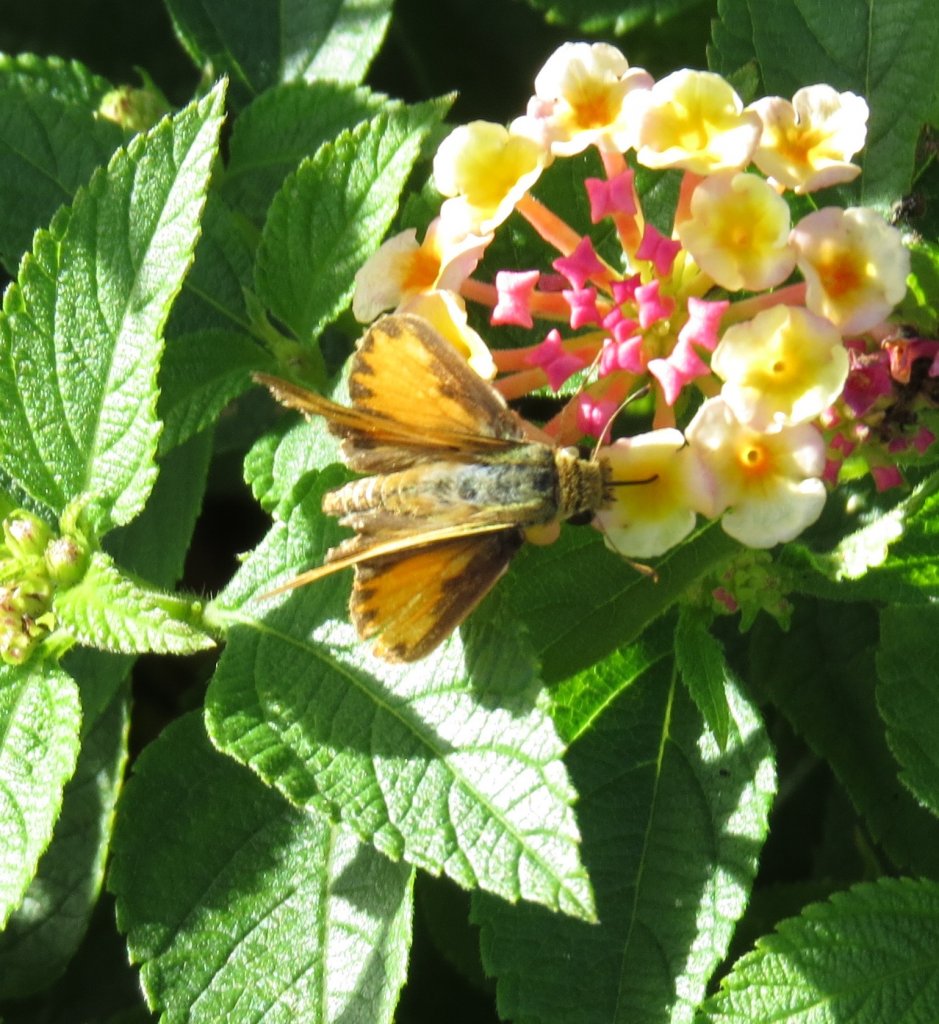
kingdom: Animalia
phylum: Arthropoda
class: Insecta
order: Lepidoptera
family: Hesperiidae
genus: Hylephila
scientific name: Hylephila phyleus
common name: Fiery Skipper
